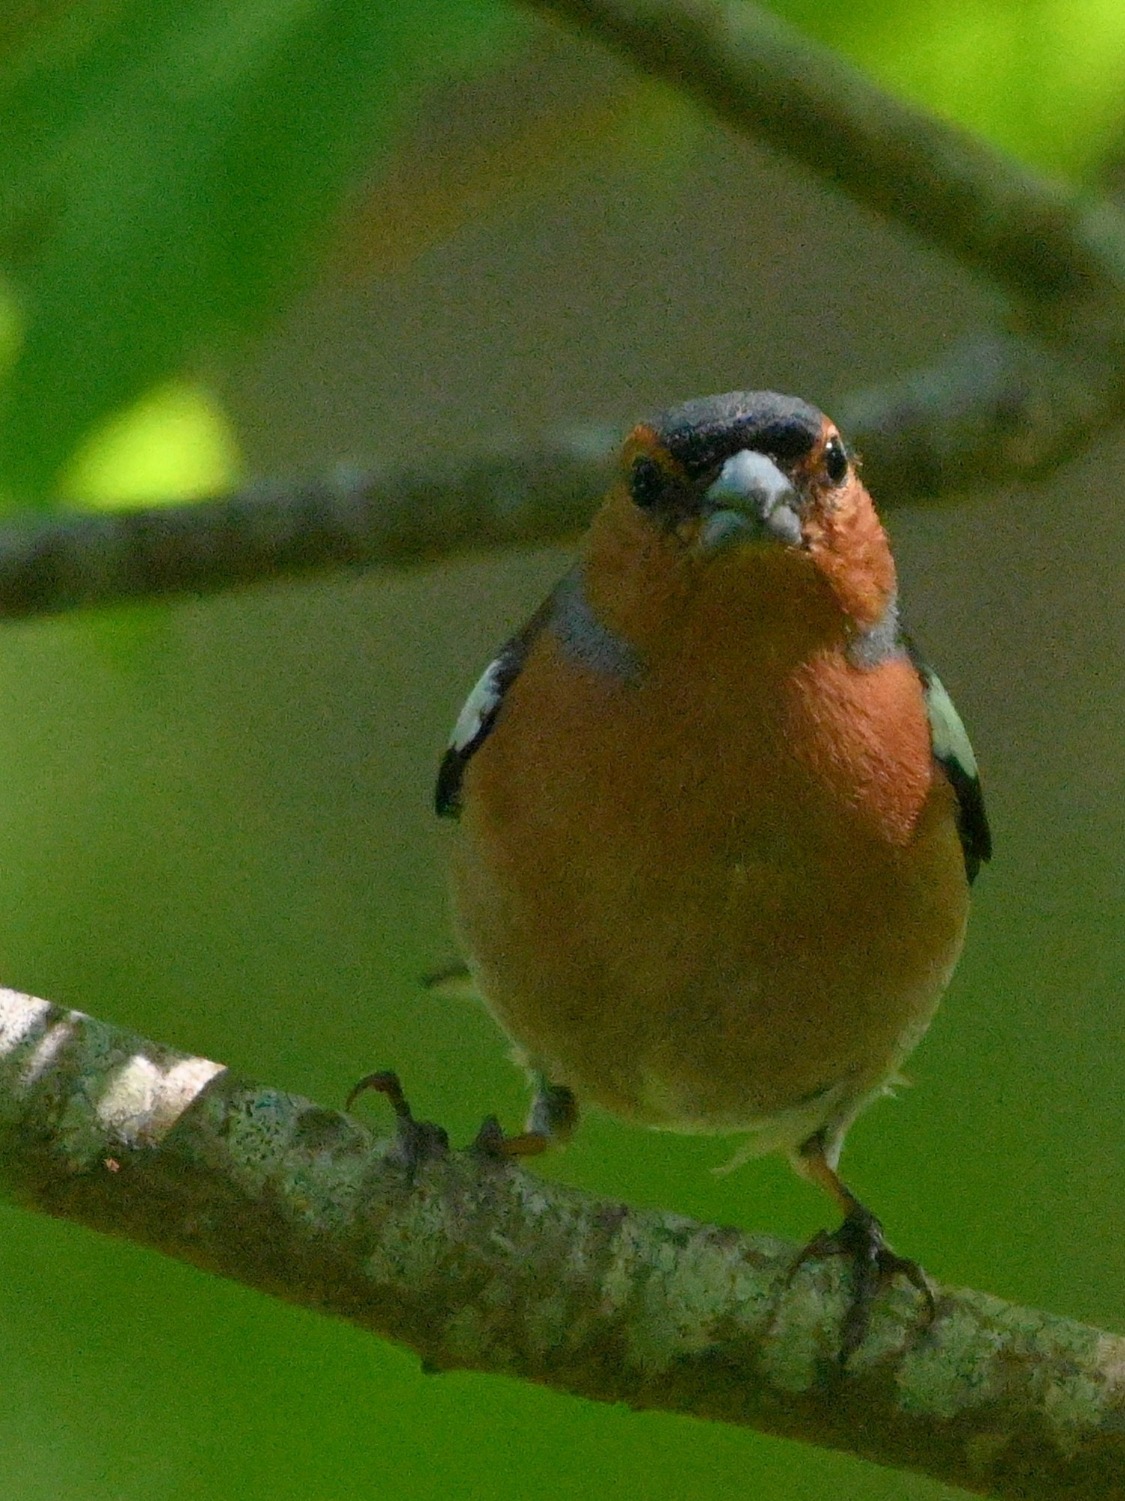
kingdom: Animalia
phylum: Chordata
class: Aves
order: Passeriformes
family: Fringillidae
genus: Fringilla
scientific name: Fringilla coelebs
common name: Bogfinke
